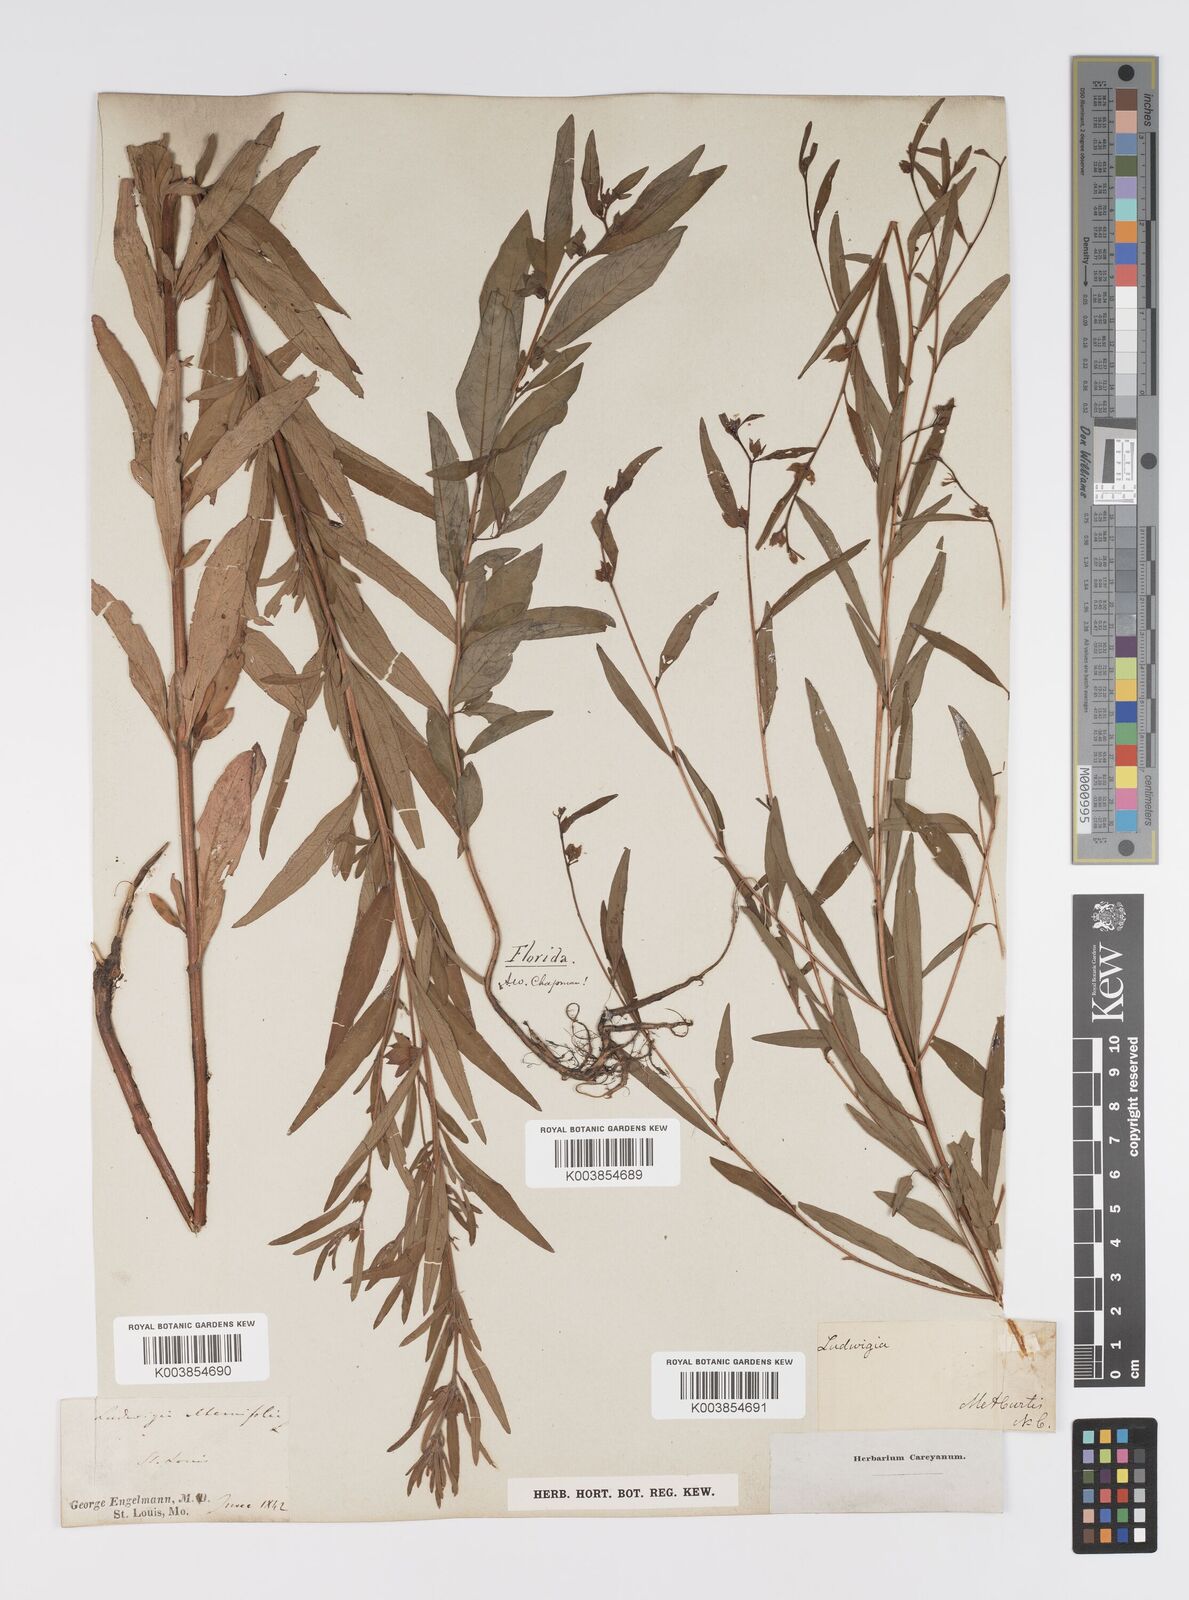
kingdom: Plantae
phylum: Tracheophyta
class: Magnoliopsida
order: Myrtales
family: Onagraceae
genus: Ludwigia
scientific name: Ludwigia alternifolia
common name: Rattlebox
